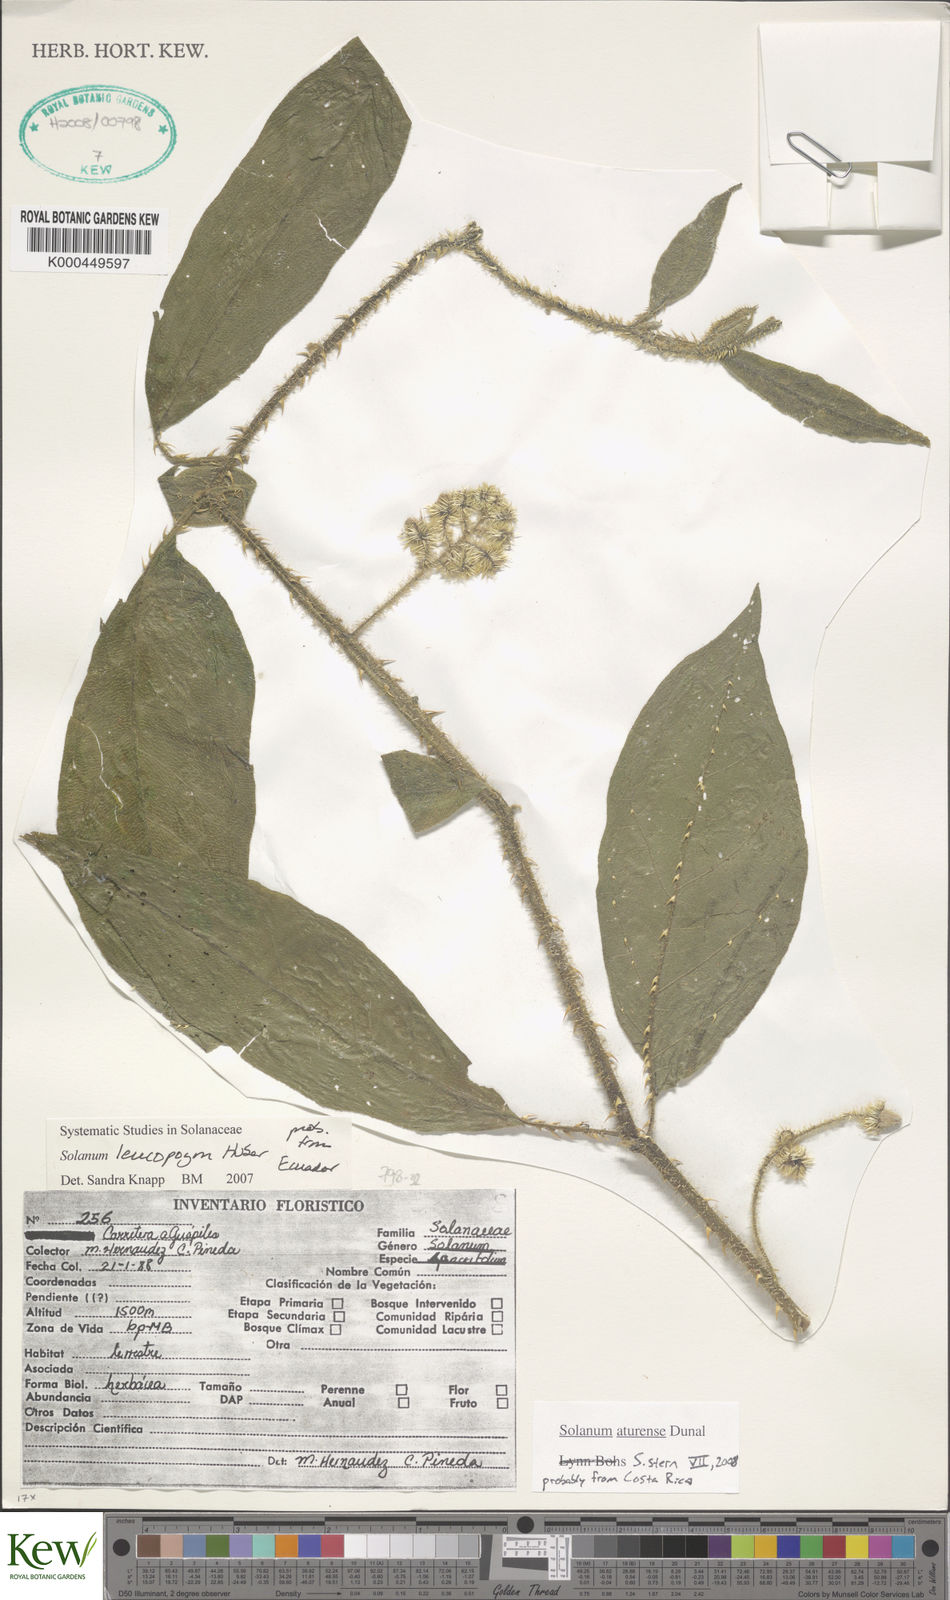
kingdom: Plantae
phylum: Tracheophyta
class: Magnoliopsida
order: Solanales
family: Solanaceae
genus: Solanum
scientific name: Solanum leucopogon
